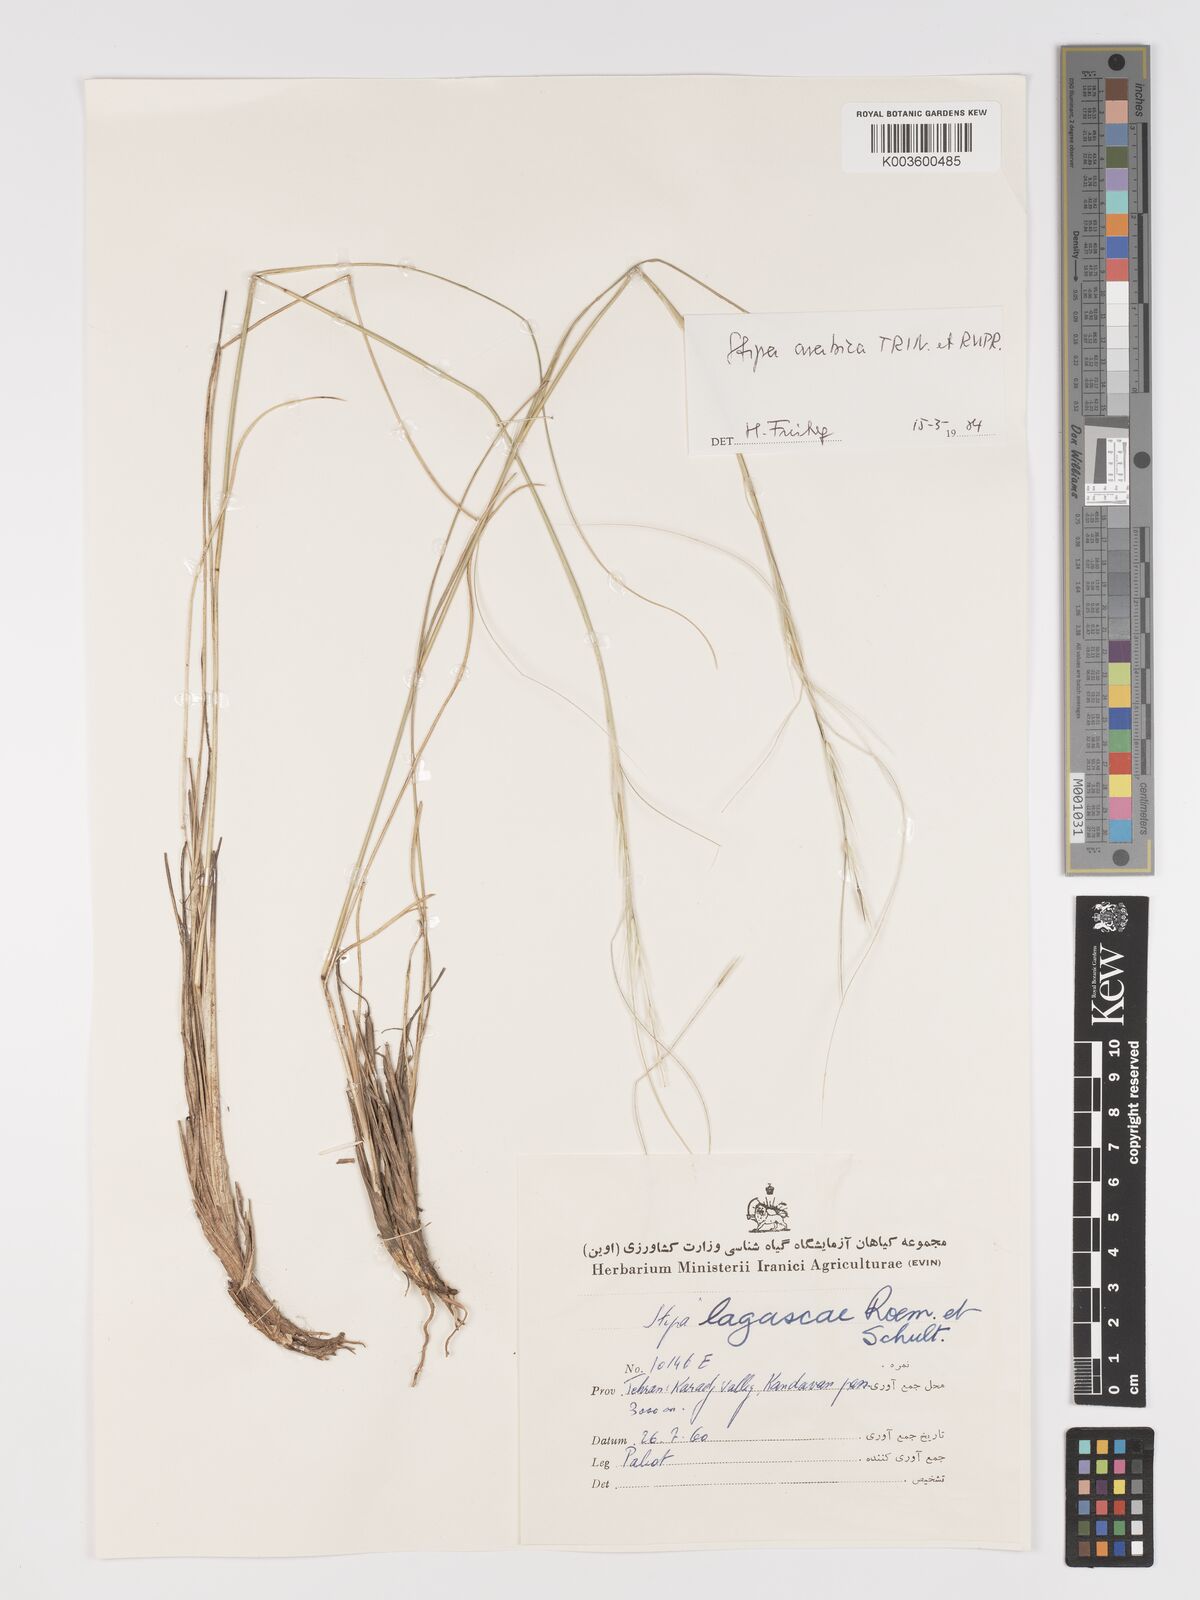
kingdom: Plantae
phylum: Tracheophyta
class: Liliopsida
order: Poales
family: Poaceae
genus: Stipa
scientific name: Stipa arabica
